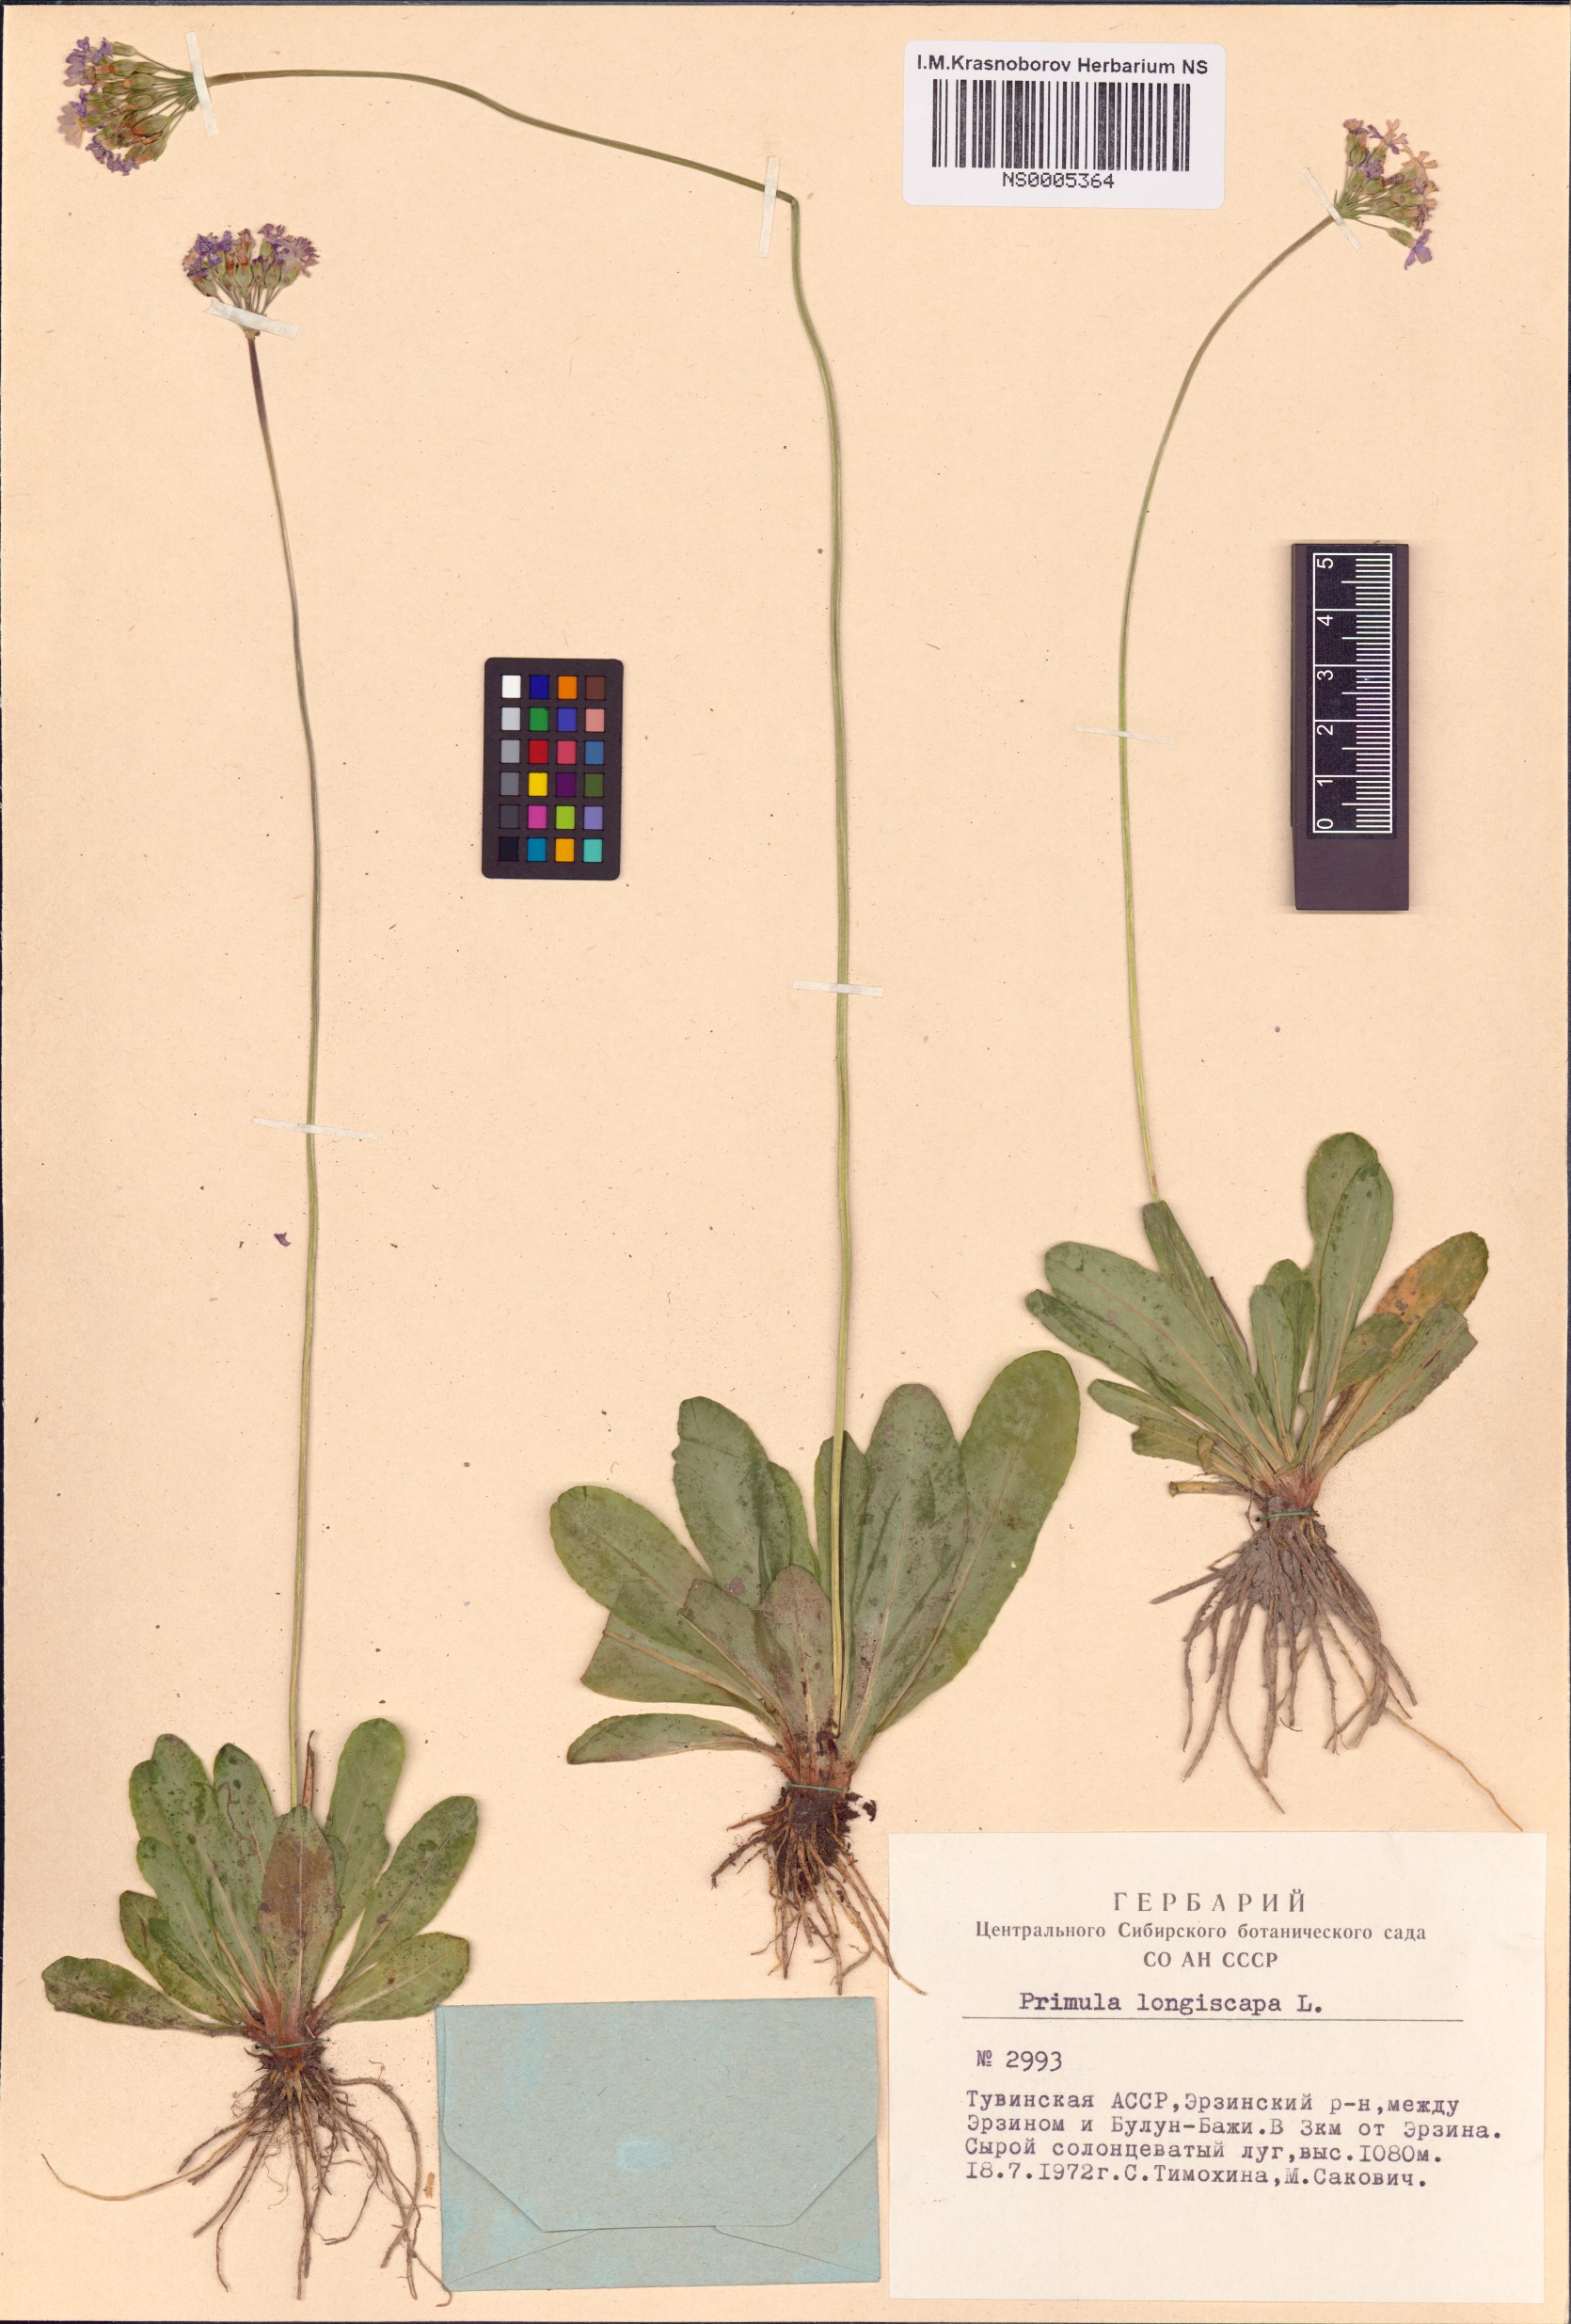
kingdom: Plantae
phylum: Tracheophyta
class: Magnoliopsida
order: Ericales
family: Primulaceae
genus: Primula
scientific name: Primula longiscapa
